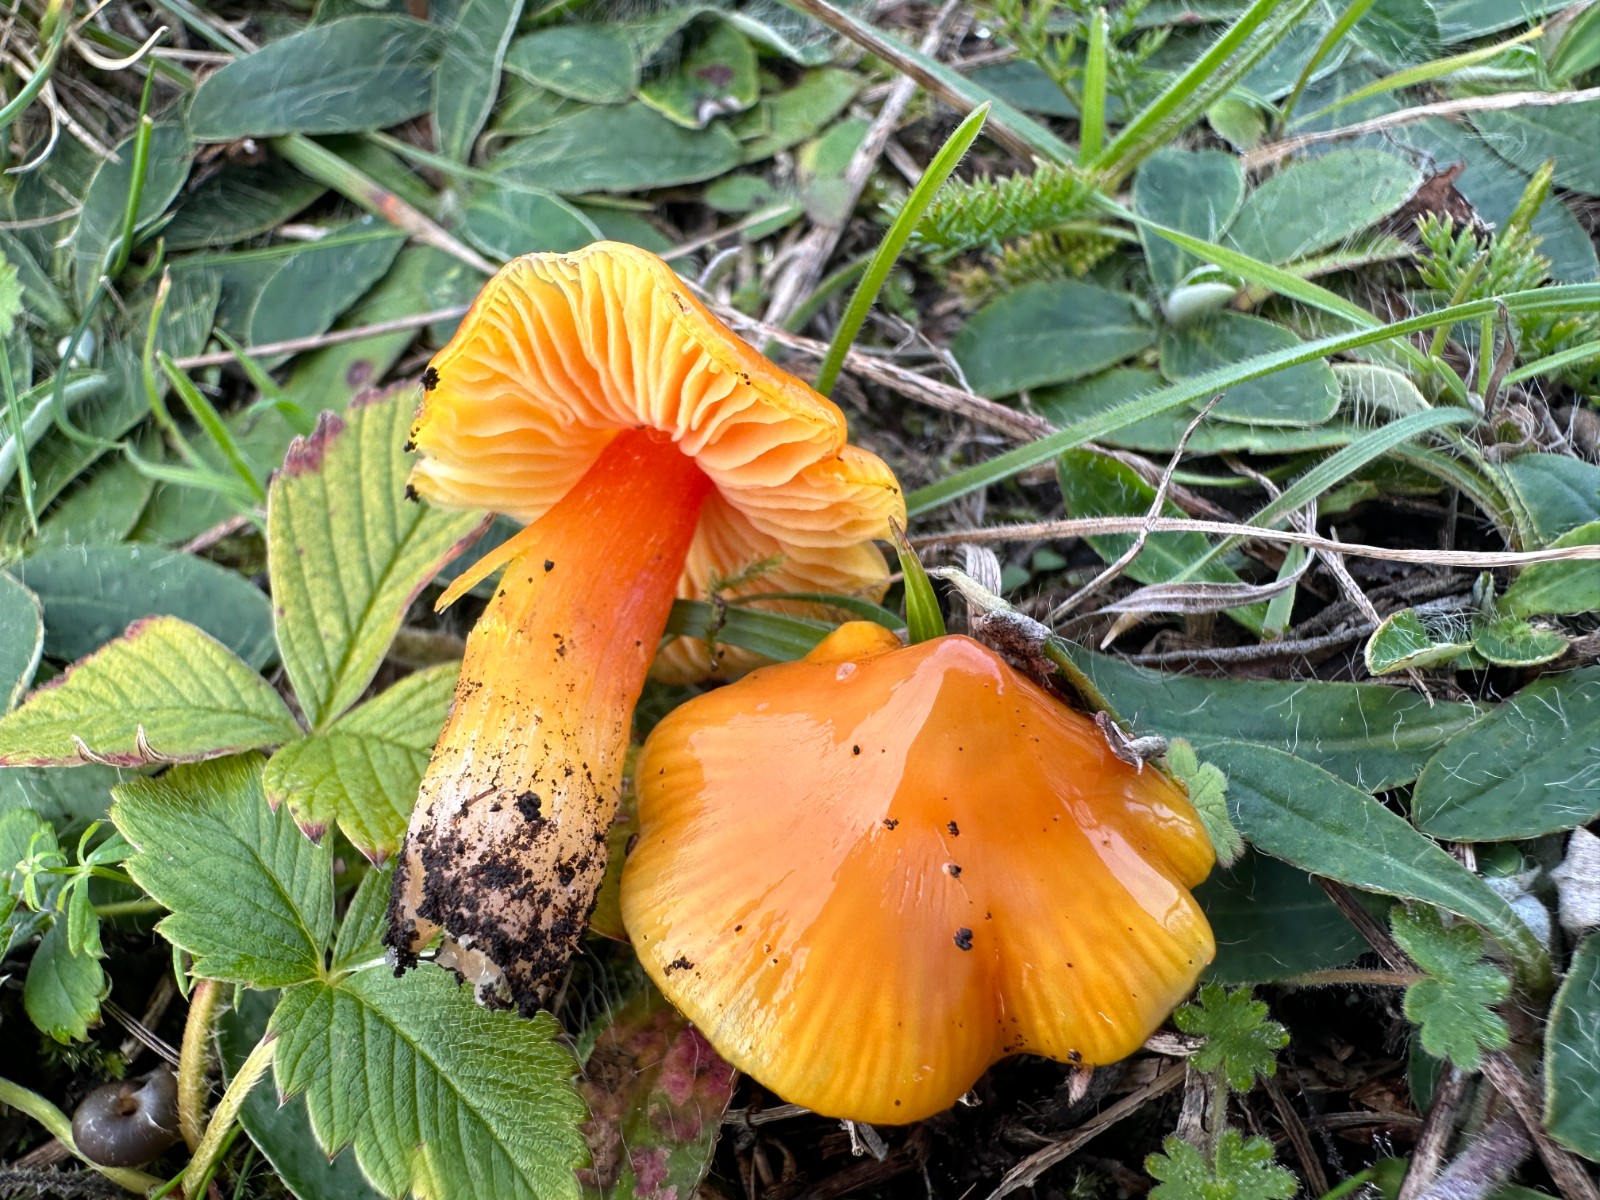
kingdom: Fungi
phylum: Basidiomycota
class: Agaricomycetes
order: Agaricales
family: Hygrophoraceae
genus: Hygrocybe
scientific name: Hygrocybe acutoconica
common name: spidspuklet vokshat
